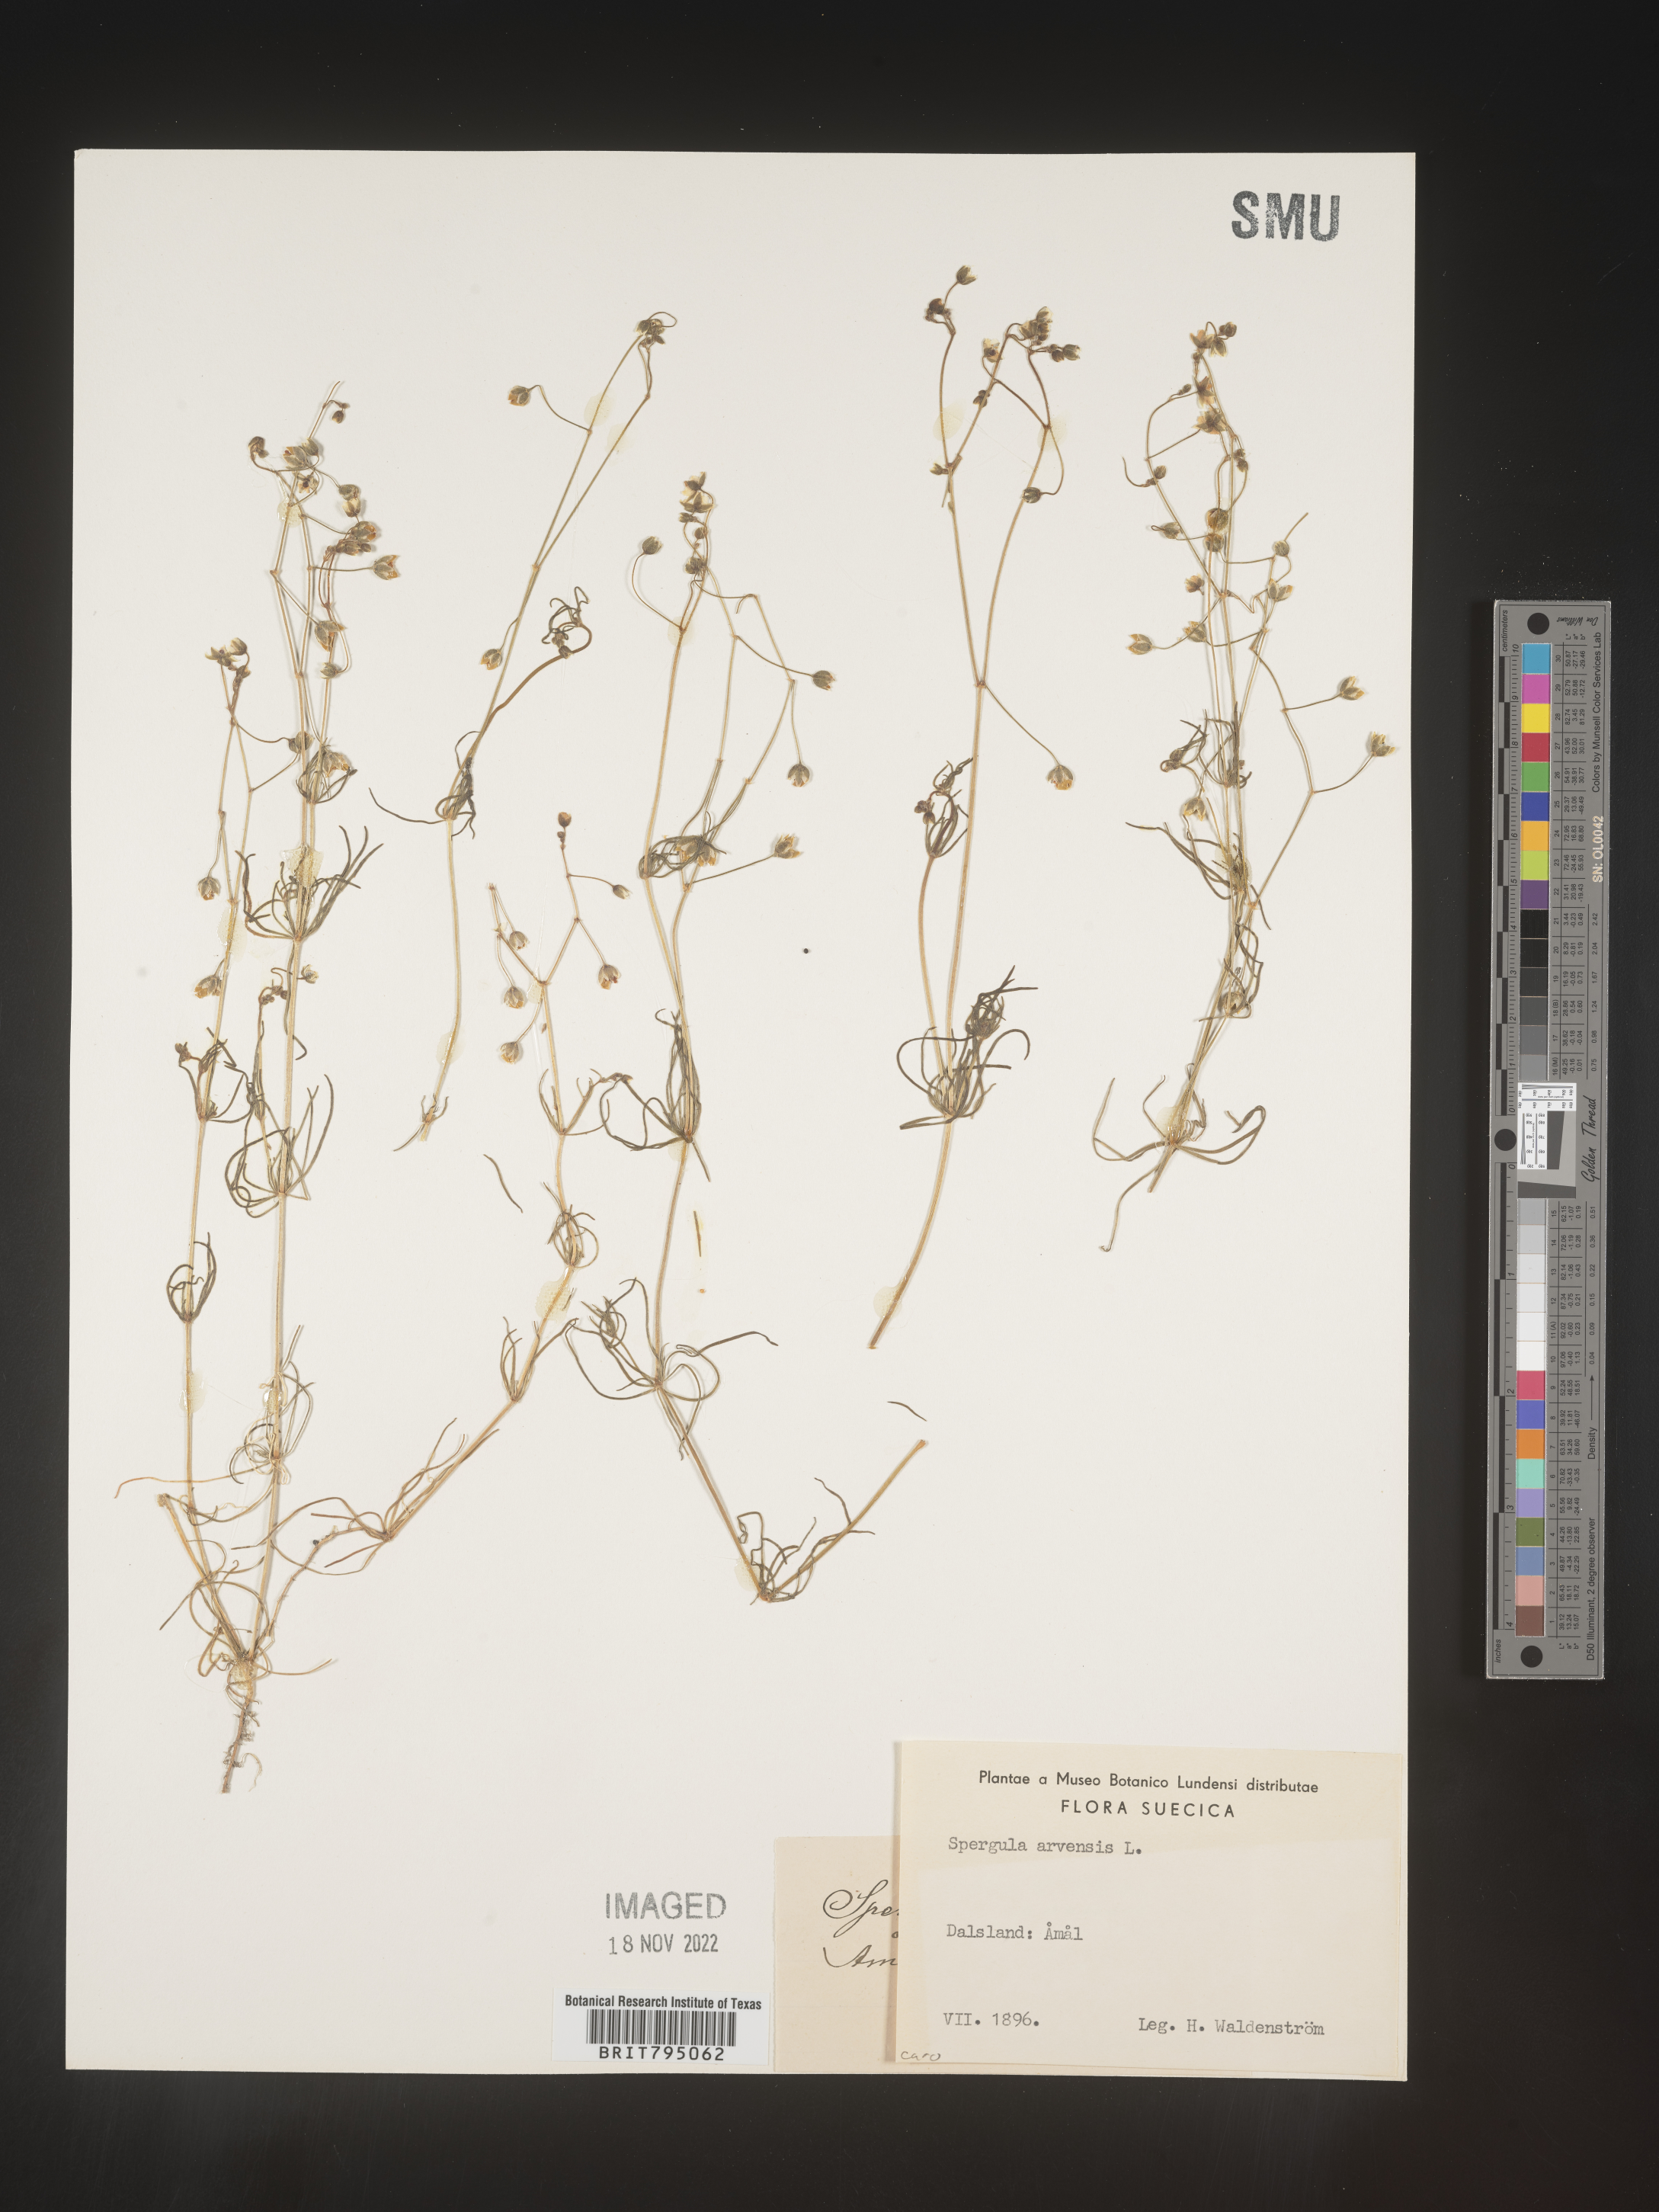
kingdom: Plantae
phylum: Tracheophyta
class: Magnoliopsida
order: Caryophyllales
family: Caryophyllaceae
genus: Spergula
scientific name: Spergula arvensis
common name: Corn spurrey
